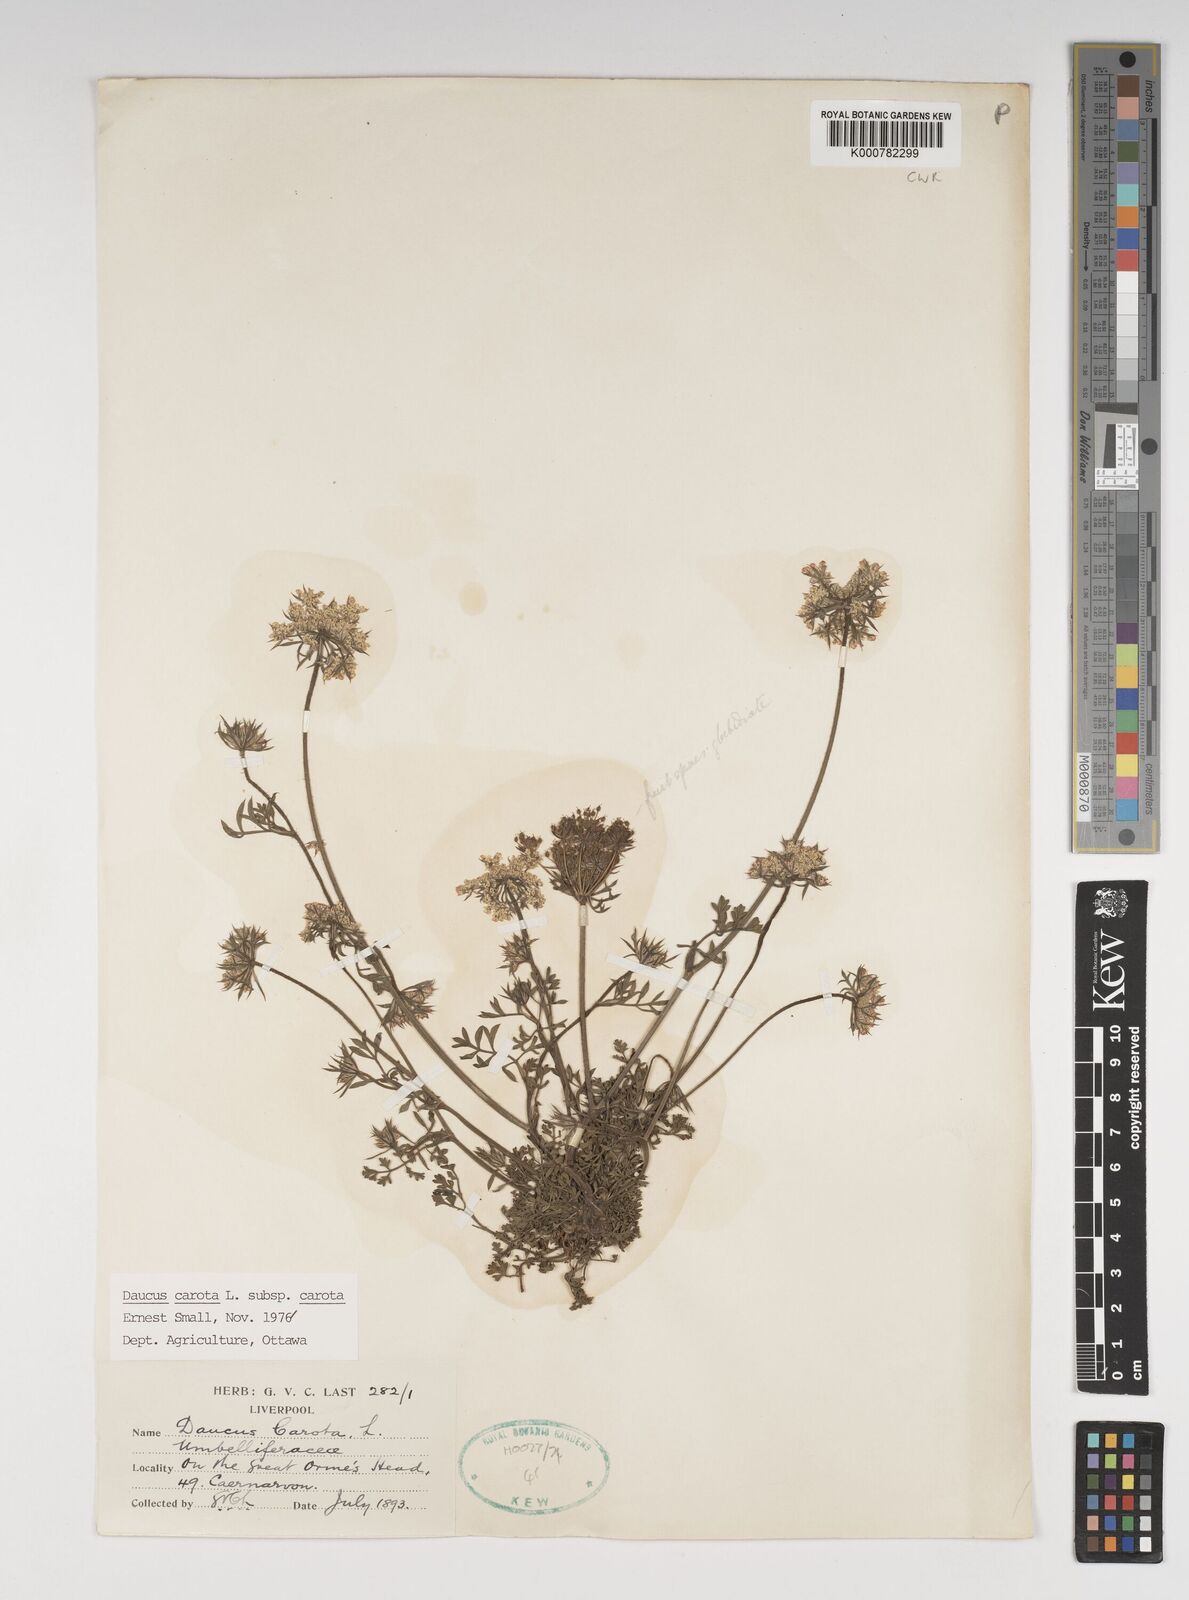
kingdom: Plantae
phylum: Tracheophyta
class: Magnoliopsida
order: Apiales
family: Apiaceae
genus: Daucus
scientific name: Daucus carota
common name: Wild carrot
